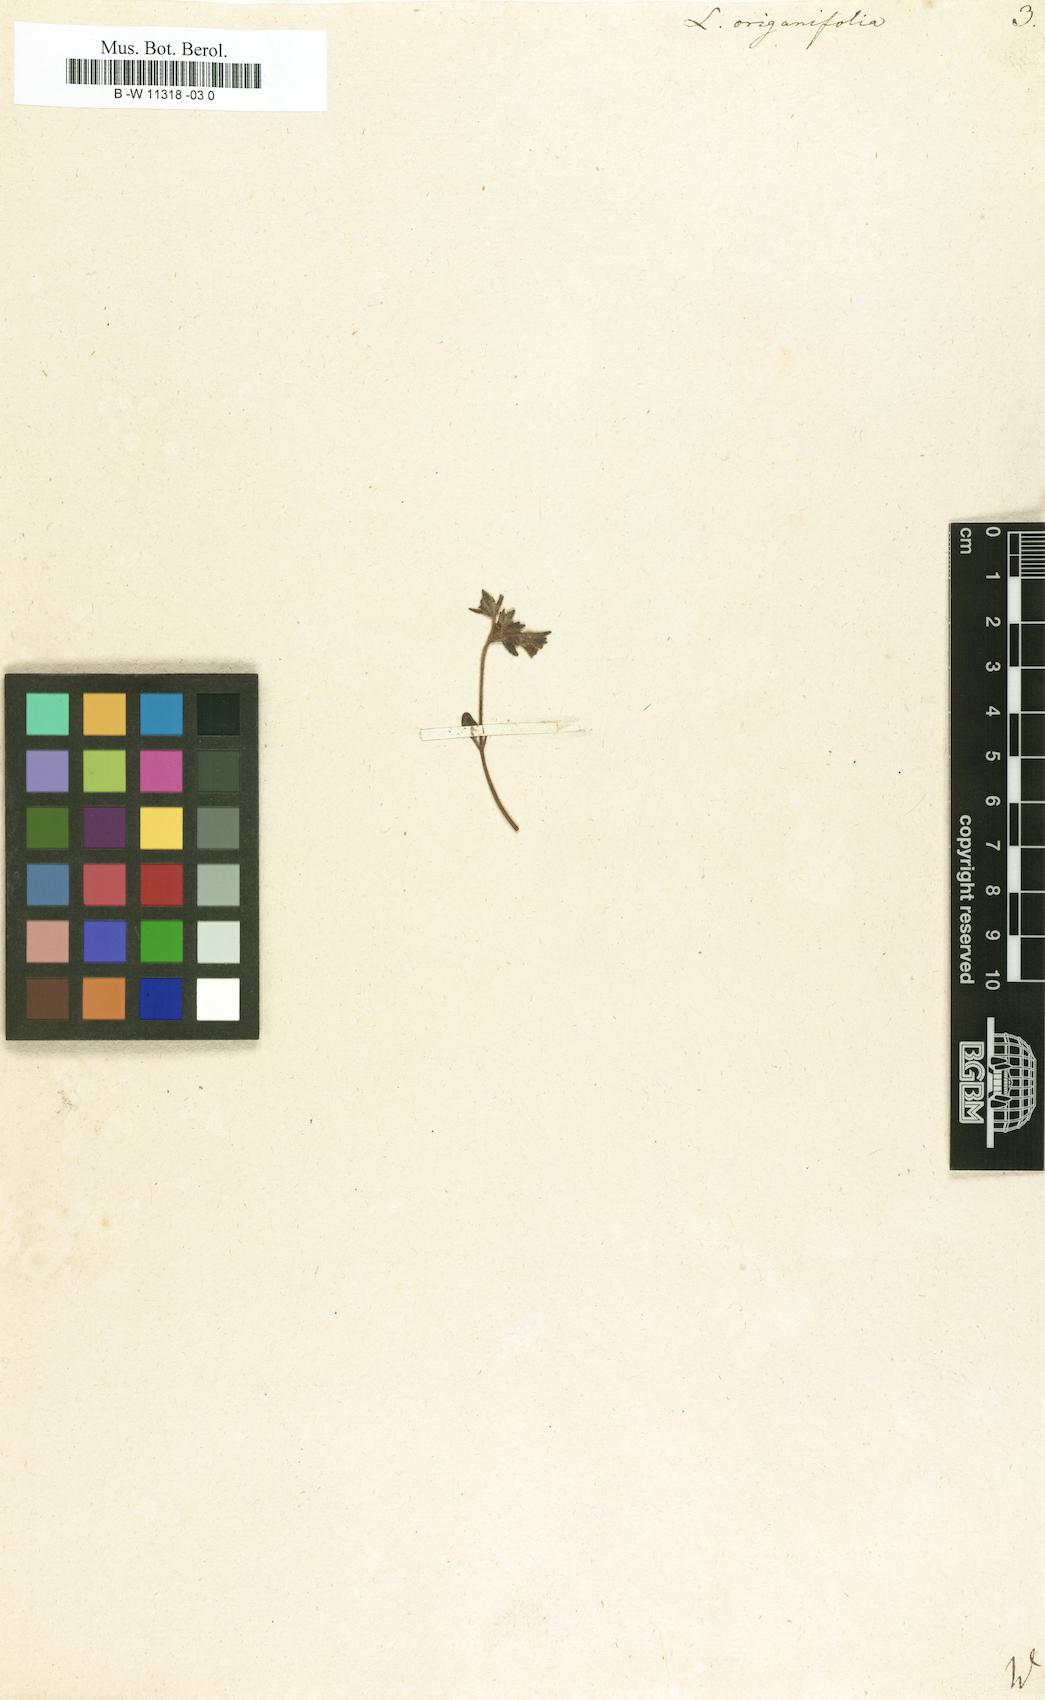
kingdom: Plantae
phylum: Tracheophyta
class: Magnoliopsida
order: Lamiales
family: Plantaginaceae
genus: Chaenorhinum
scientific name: Chaenorhinum origanifolium
